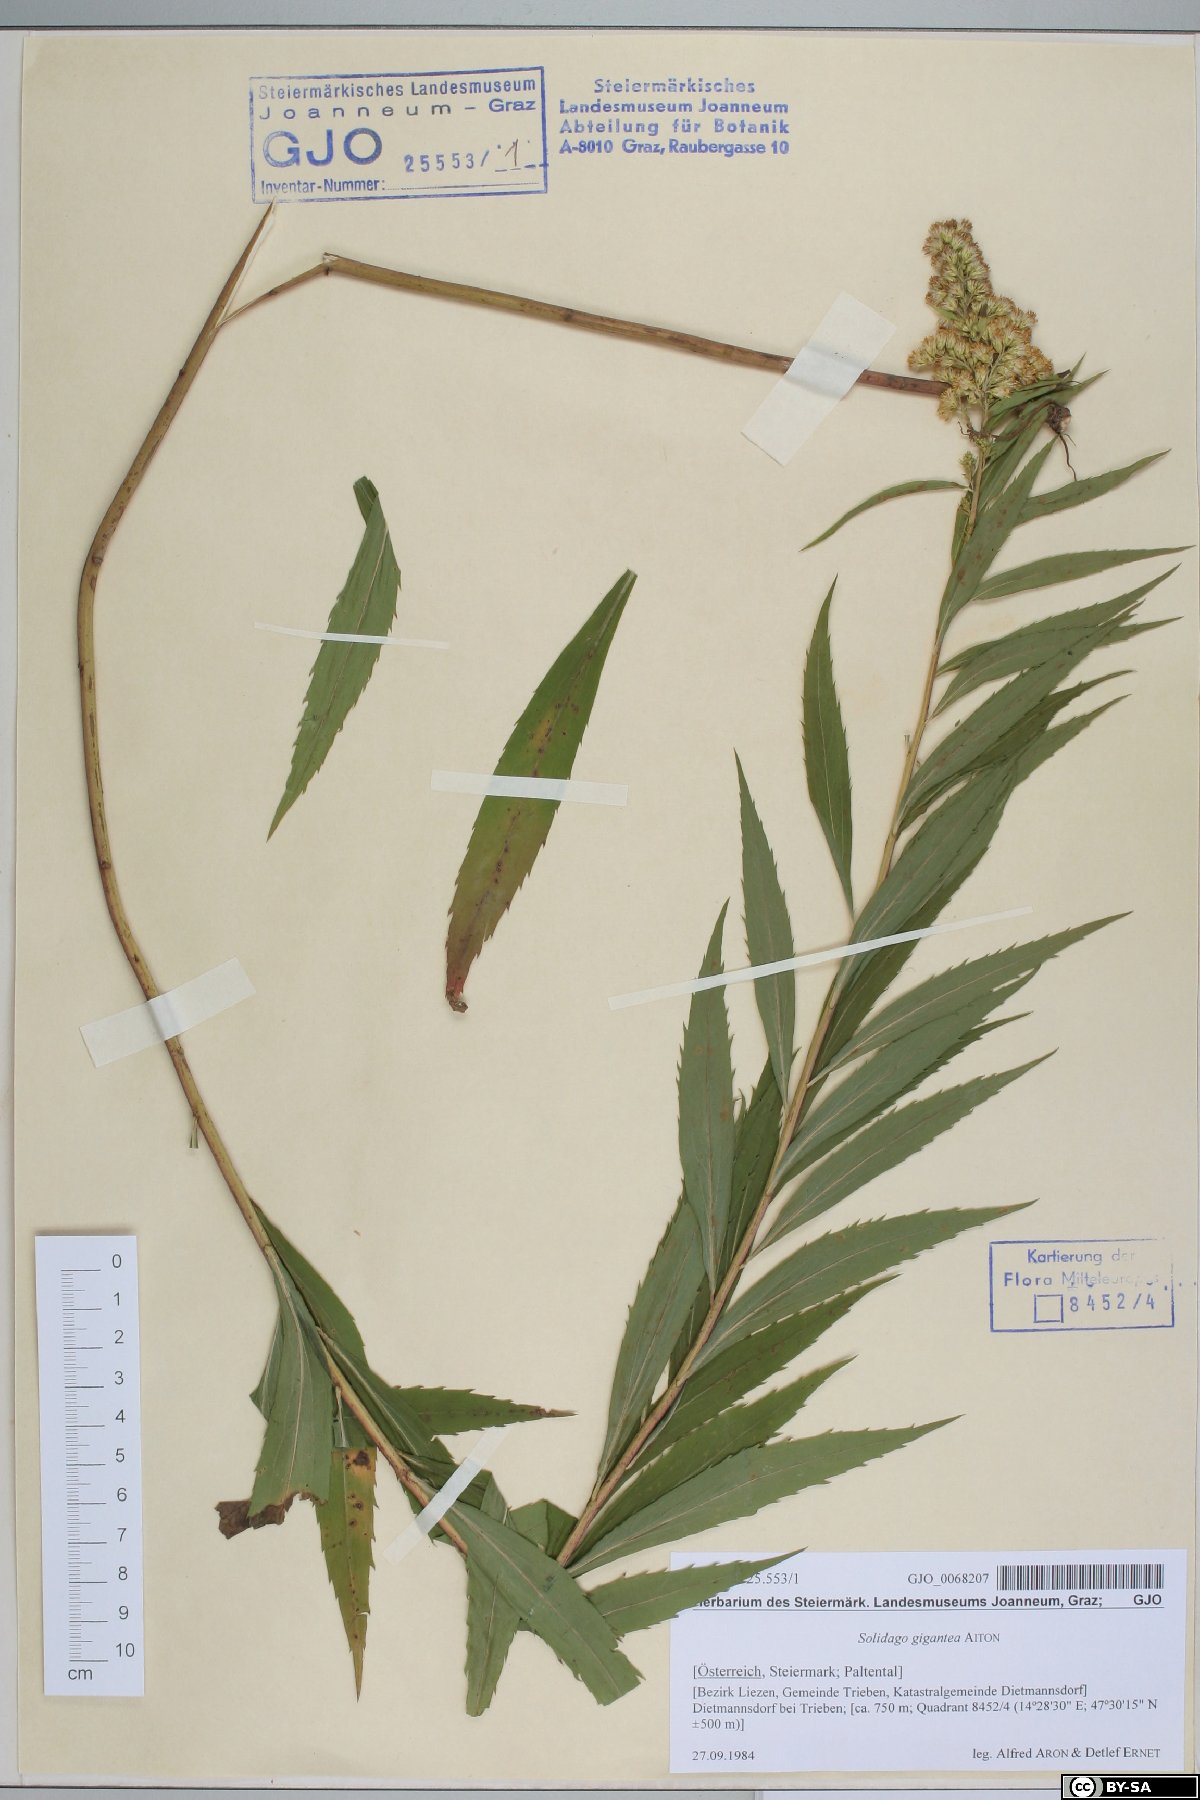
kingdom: Plantae
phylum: Tracheophyta
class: Magnoliopsida
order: Asterales
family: Asteraceae
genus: Solidago
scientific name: Solidago gigantea
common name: Giant goldenrod
